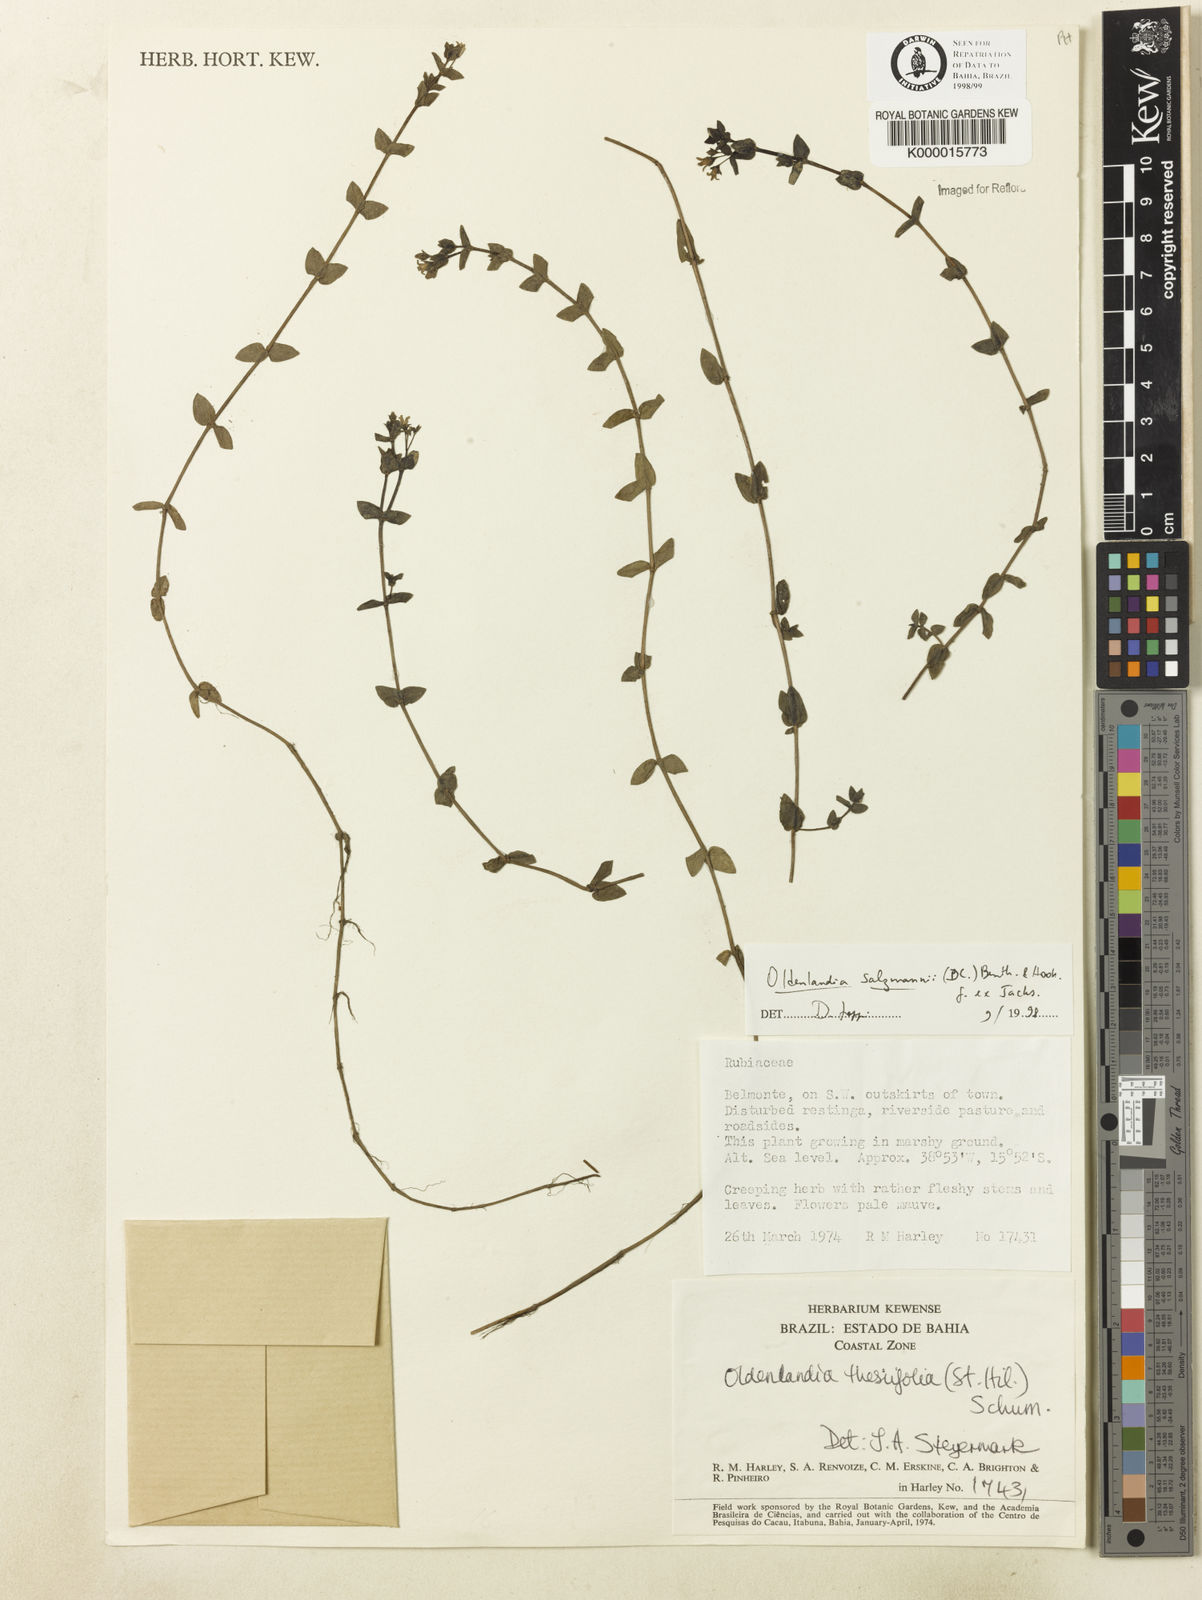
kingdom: Plantae
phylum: Tracheophyta
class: Magnoliopsida
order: Gentianales
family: Rubiaceae
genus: Oldenlandia
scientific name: Oldenlandia salzmannii
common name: Salzmann's mille graines
